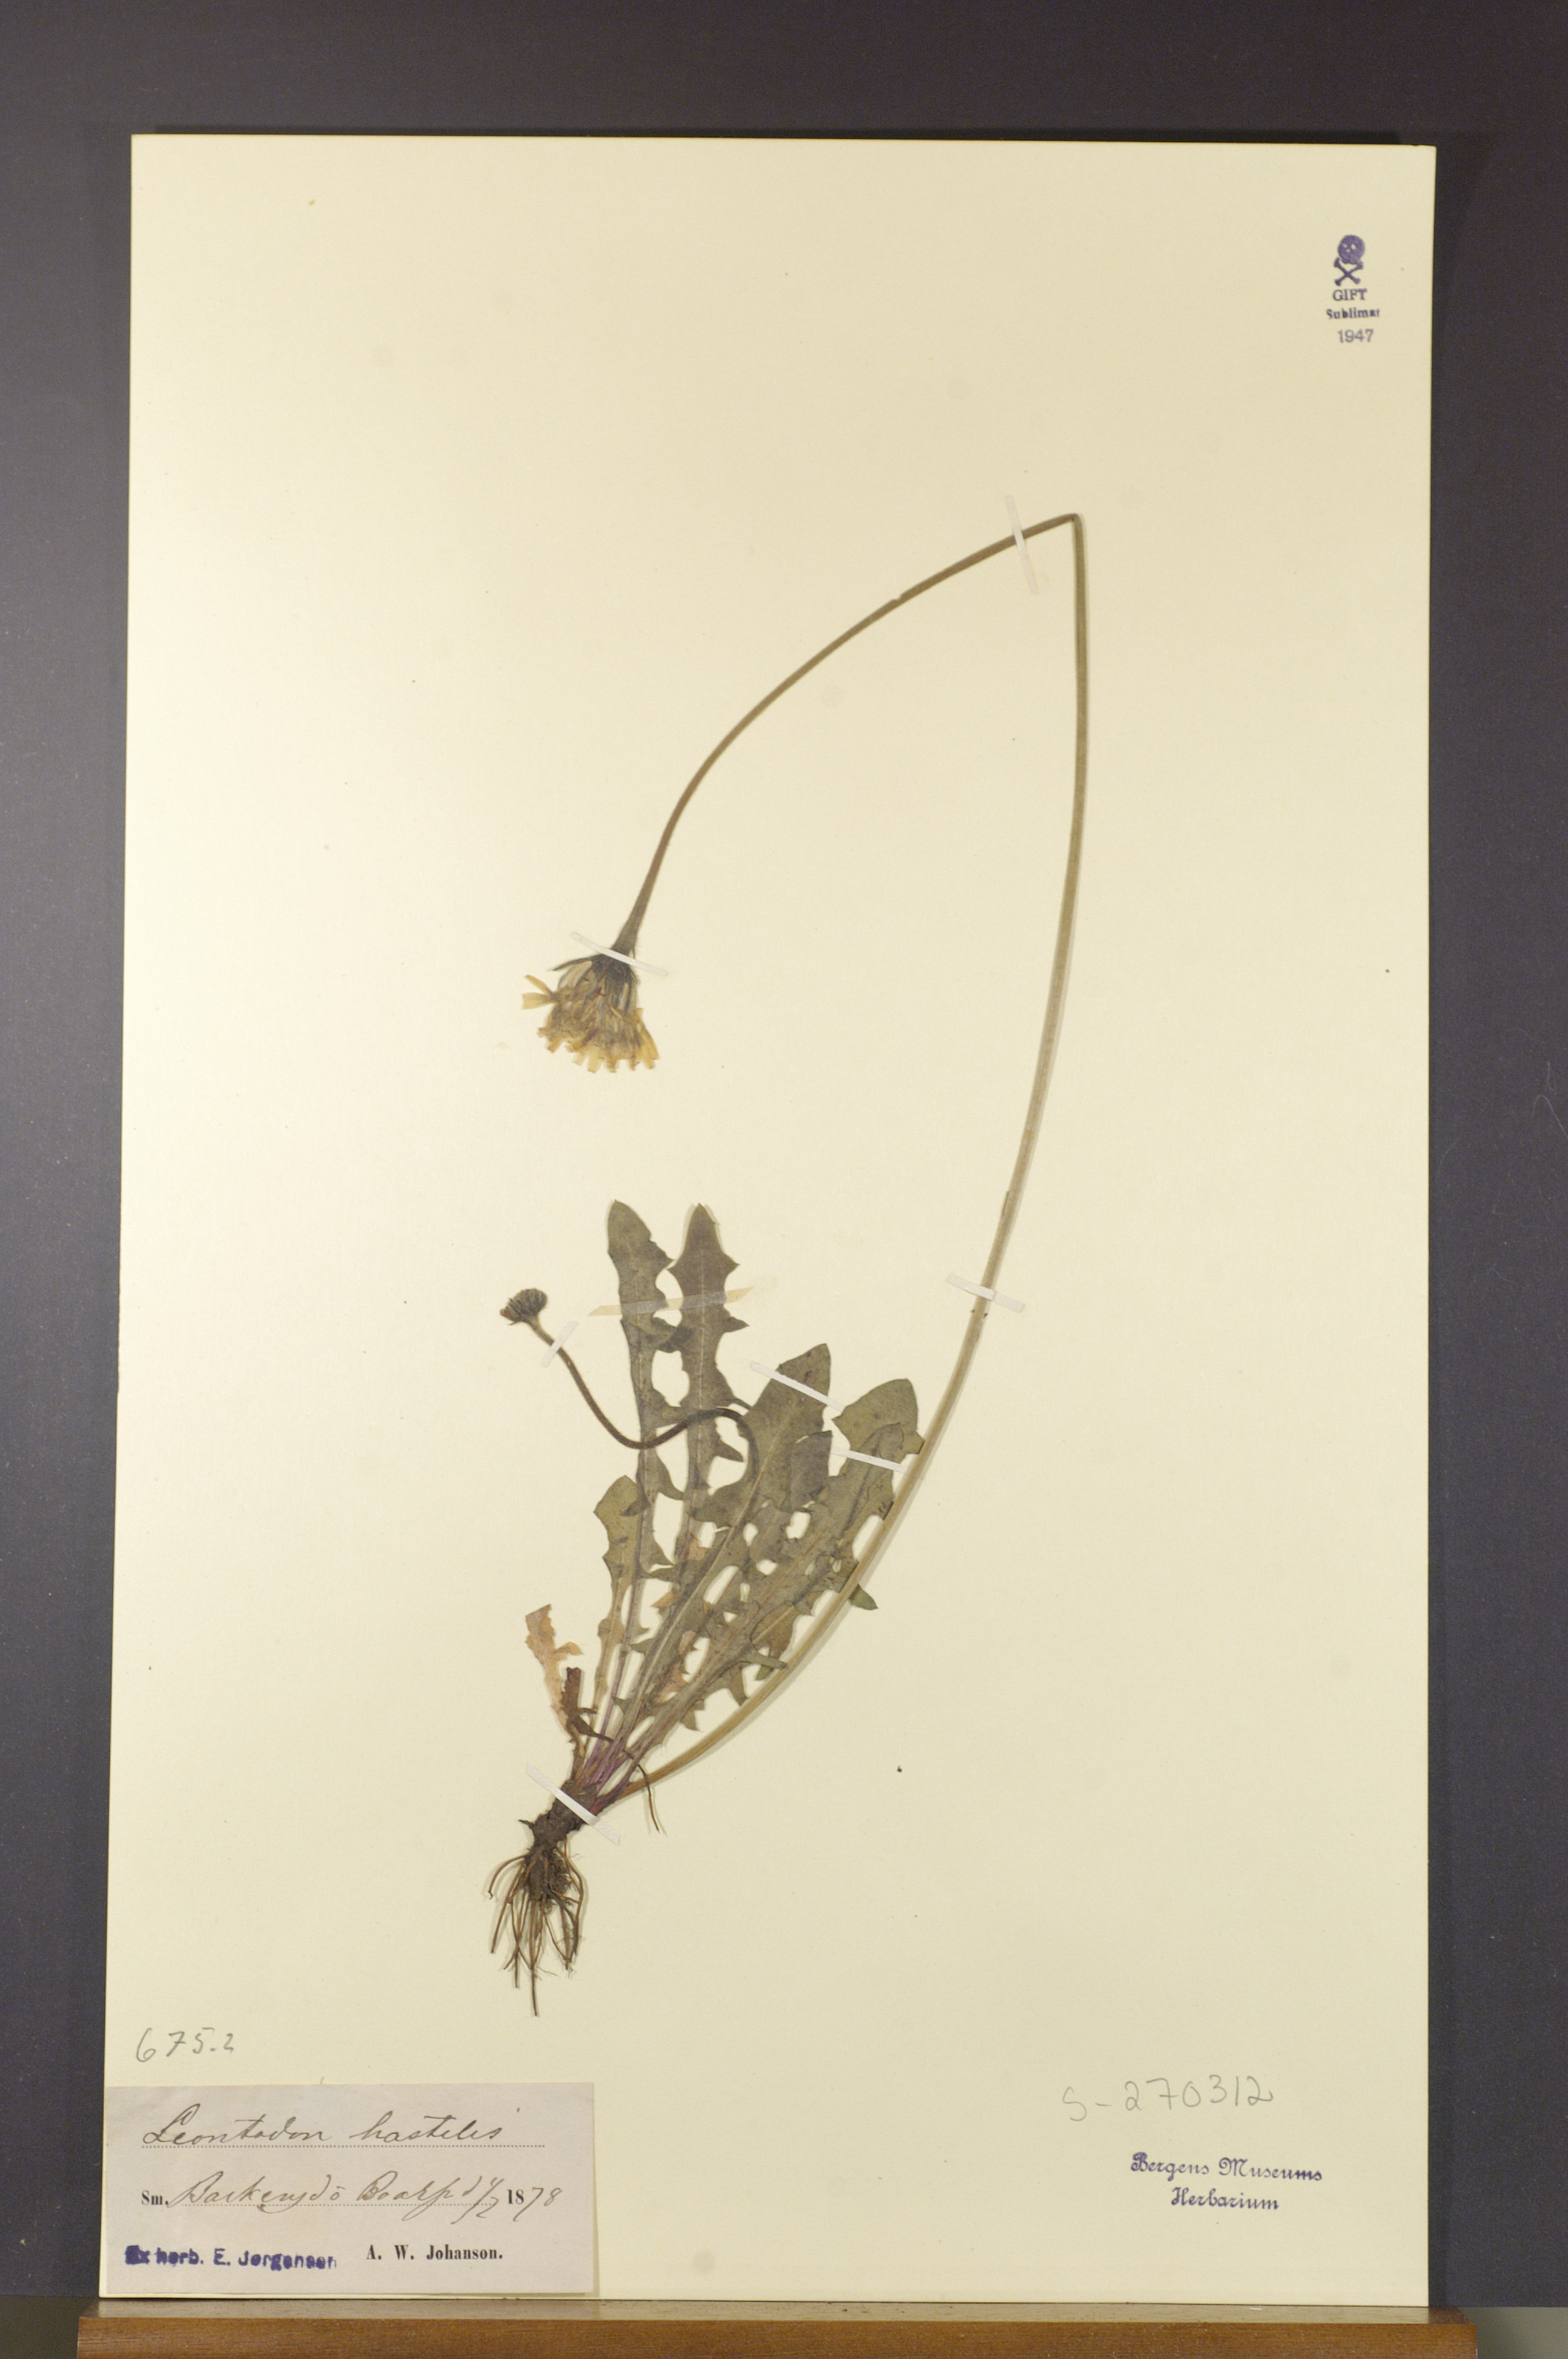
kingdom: Plantae
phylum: Tracheophyta
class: Magnoliopsida
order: Asterales
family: Asteraceae
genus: Leontodon
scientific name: Leontodon hispidus
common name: Rough hawkbit
